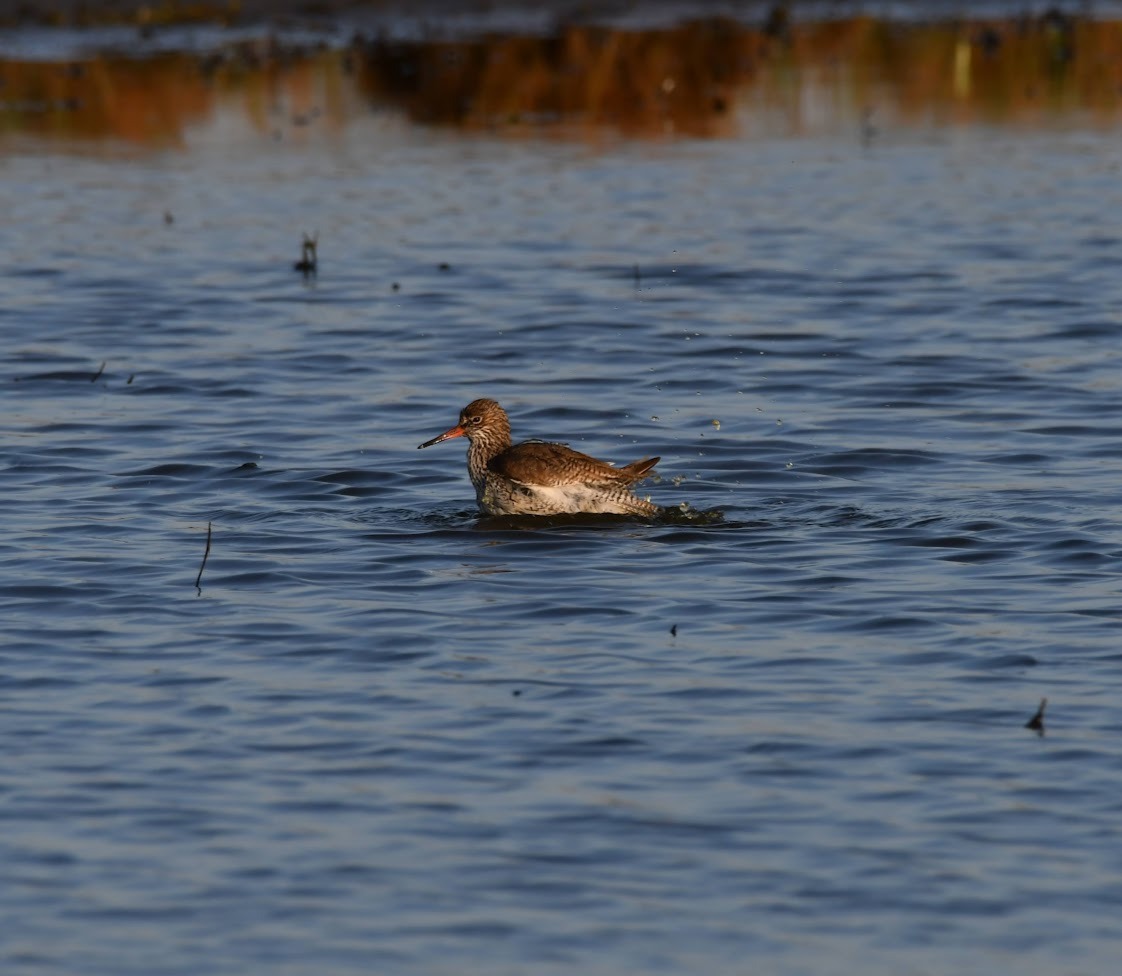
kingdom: Animalia
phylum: Chordata
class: Aves
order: Charadriiformes
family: Scolopacidae
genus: Tringa
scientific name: Tringa totanus
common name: Rødben
